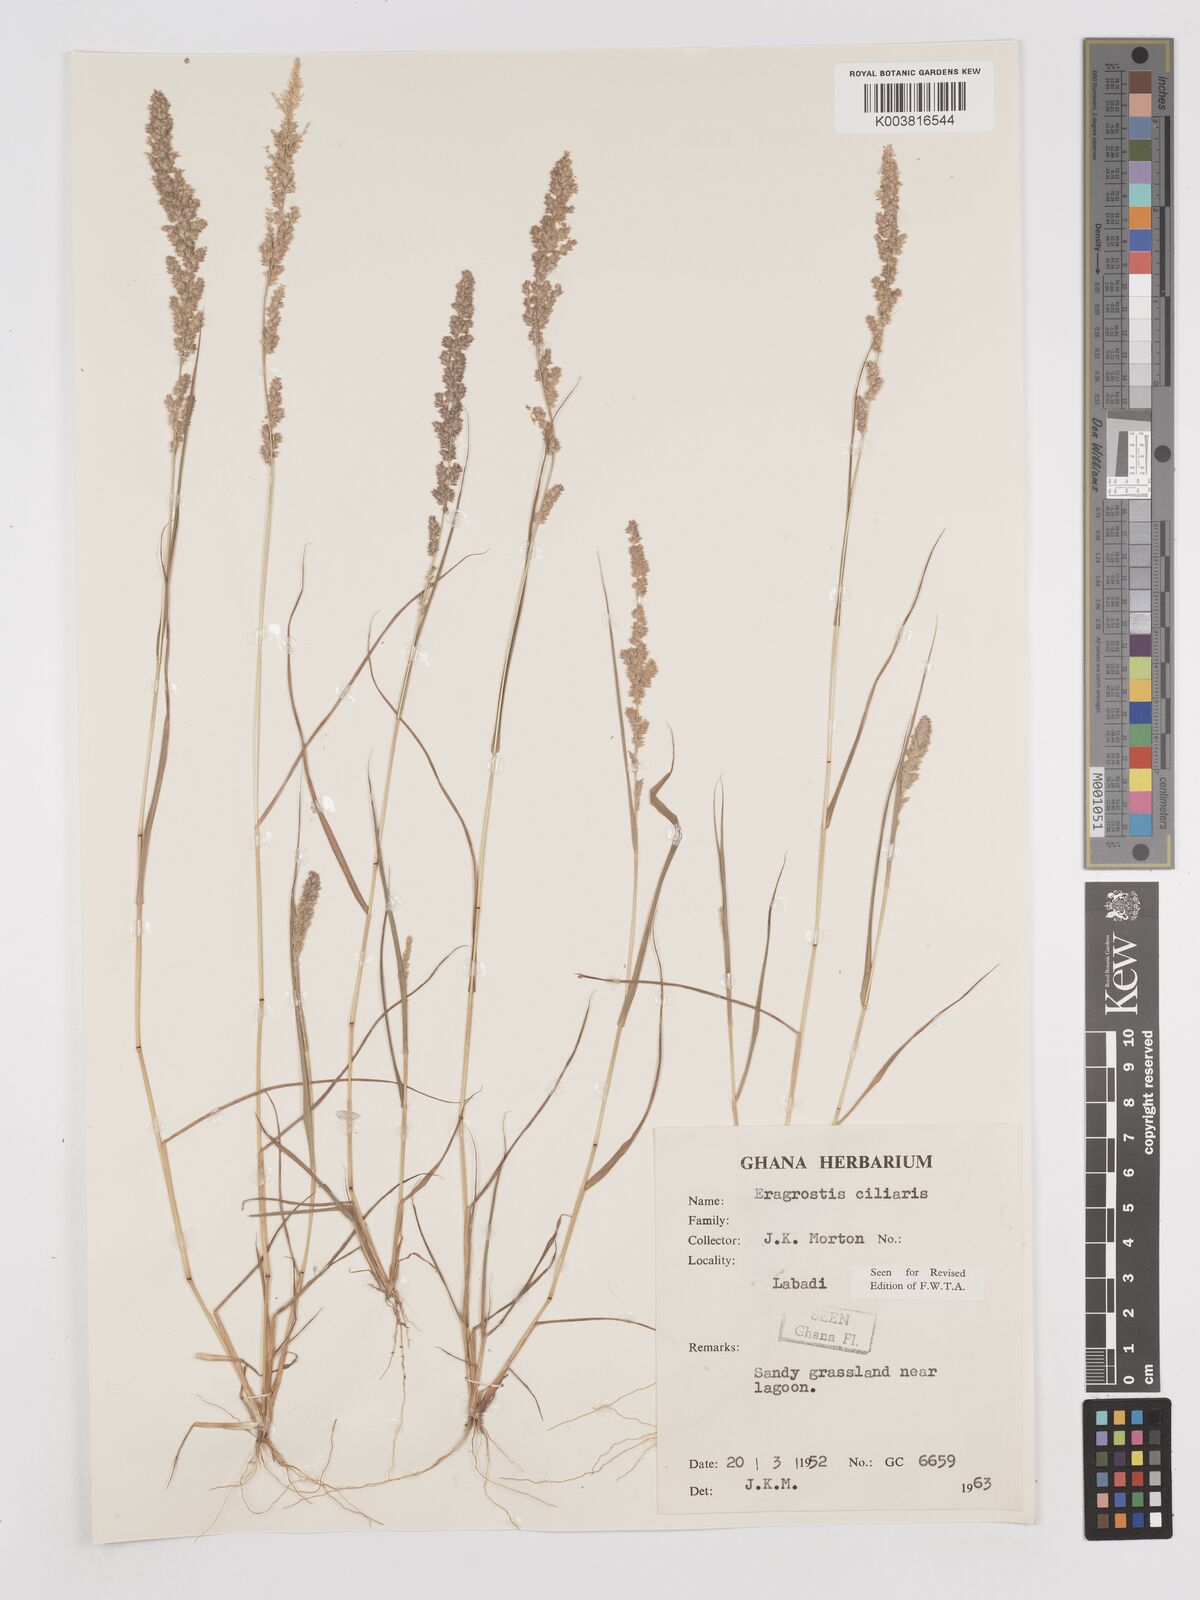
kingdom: Plantae
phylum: Tracheophyta
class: Liliopsida
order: Poales
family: Poaceae
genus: Eragrostis
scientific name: Eragrostis ciliaris
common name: Gophertail lovegrass
